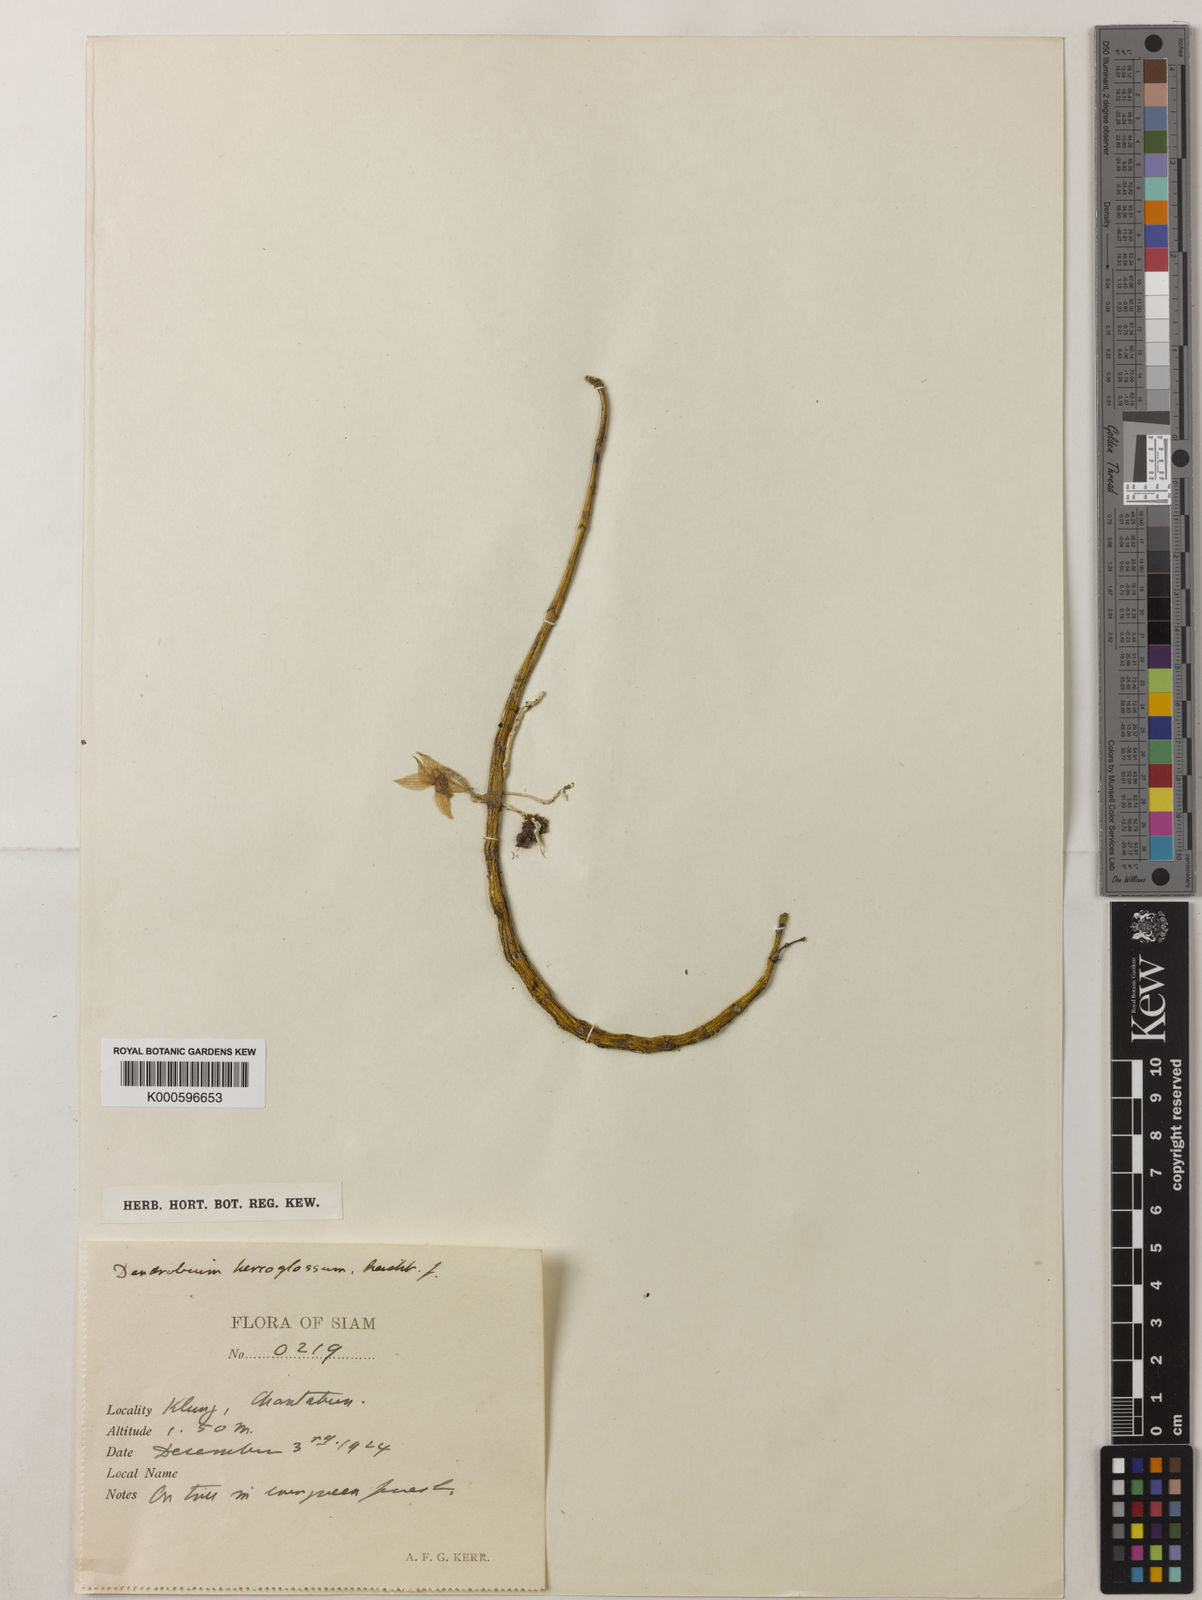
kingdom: Plantae
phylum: Tracheophyta
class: Liliopsida
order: Asparagales
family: Orchidaceae
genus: Dendrobium
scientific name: Dendrobium hercoglossum
